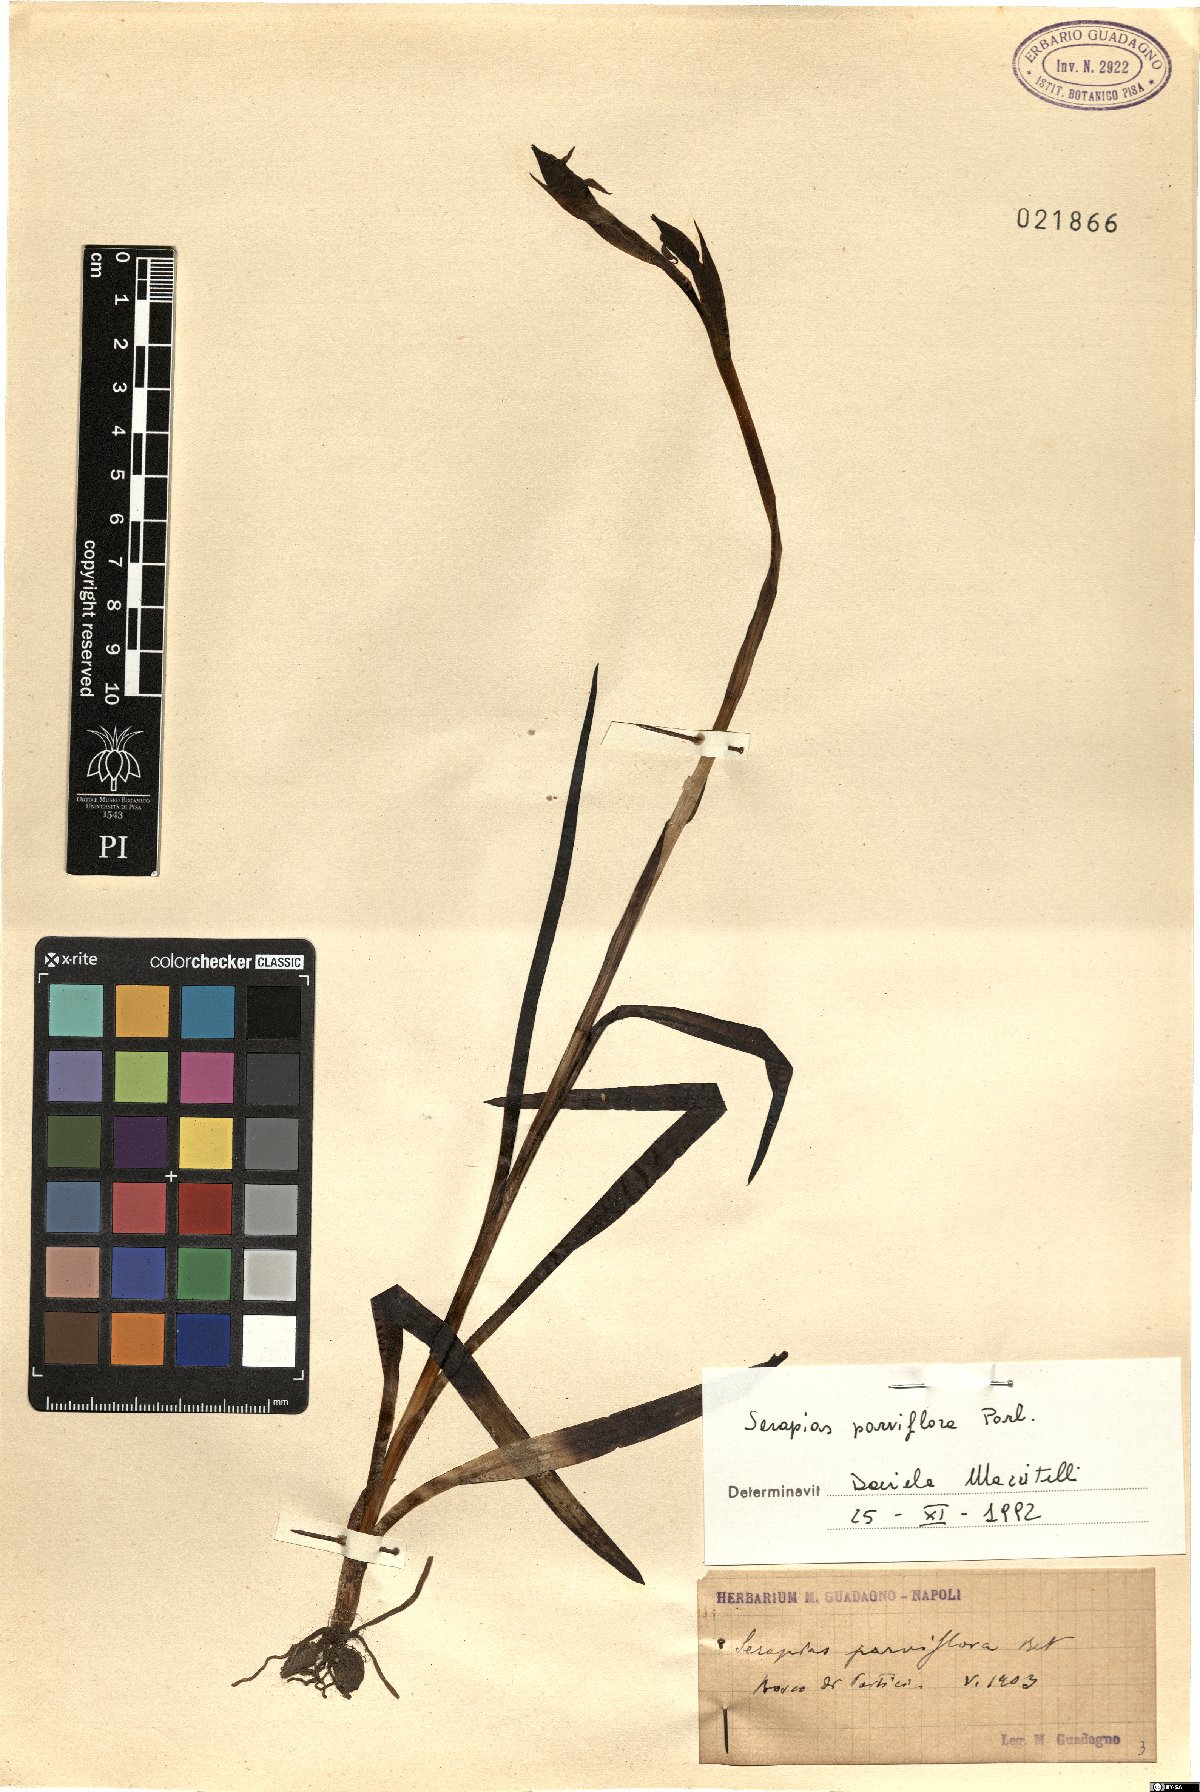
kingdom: Plantae
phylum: Tracheophyta
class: Liliopsida
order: Asparagales
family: Orchidaceae
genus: Serapias
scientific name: Serapias parviflora
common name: Small-flowered tongue-orchid
